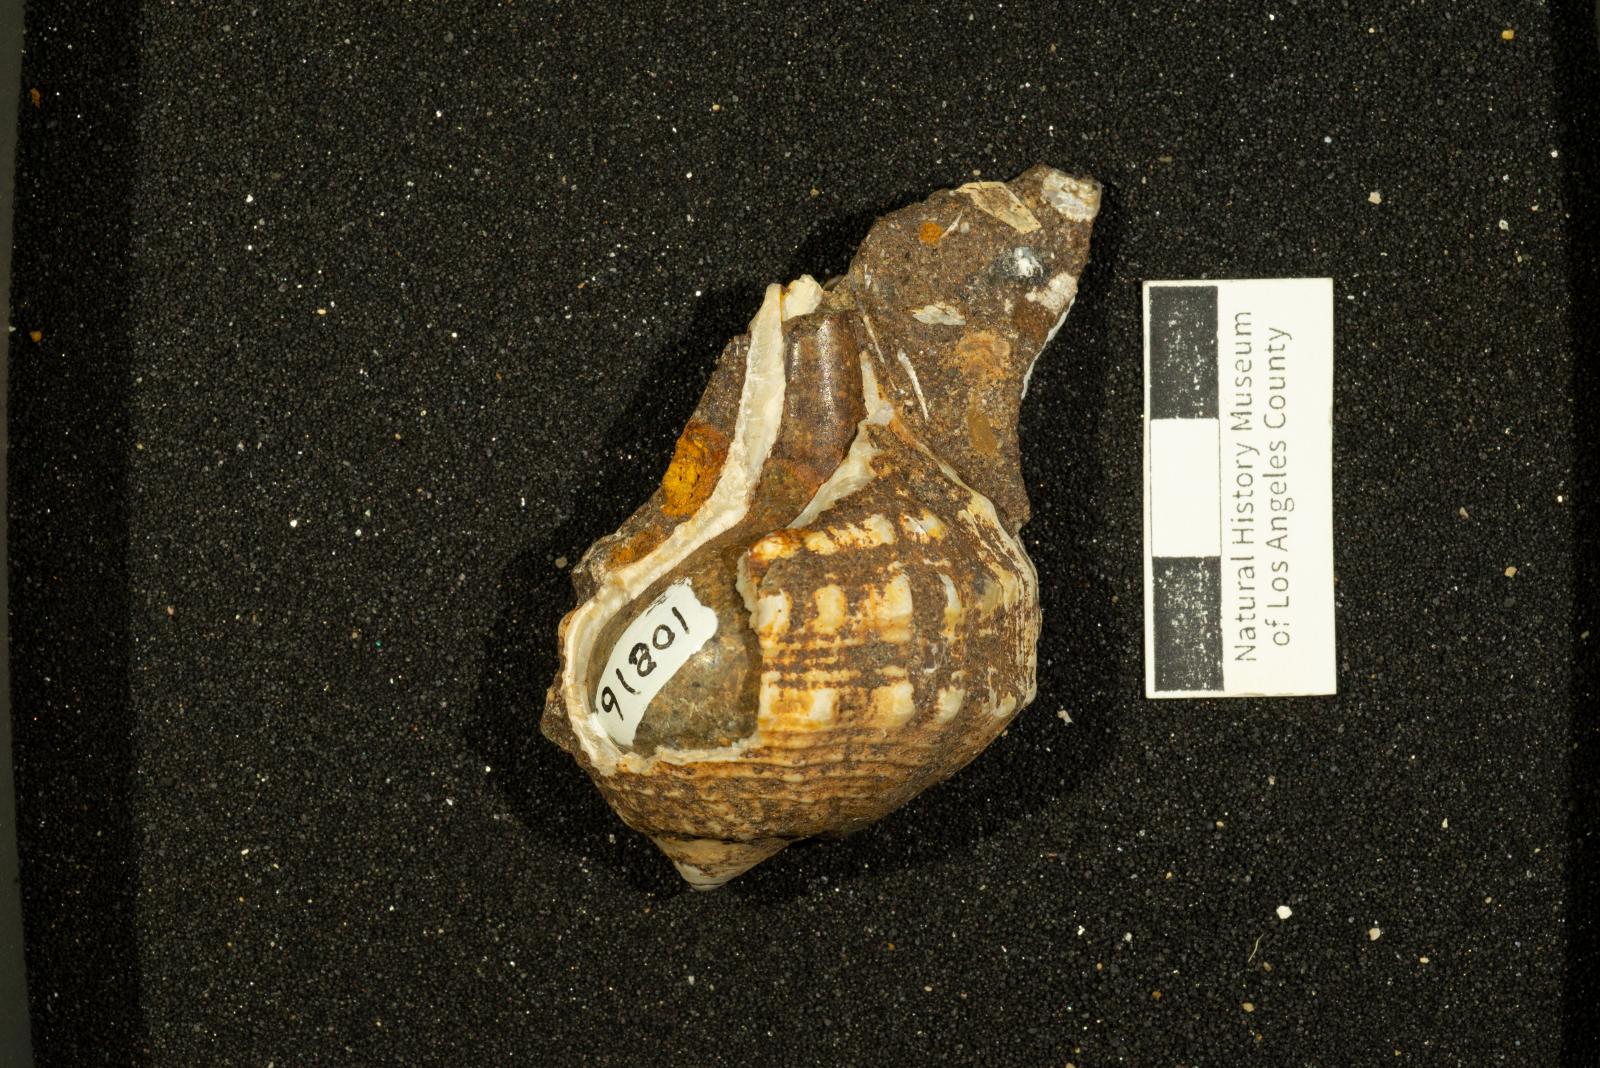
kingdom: Animalia
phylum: Mollusca
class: Gastropoda
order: Neogastropoda
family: Perissityidae
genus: Pyropsis
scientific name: Pyropsis
